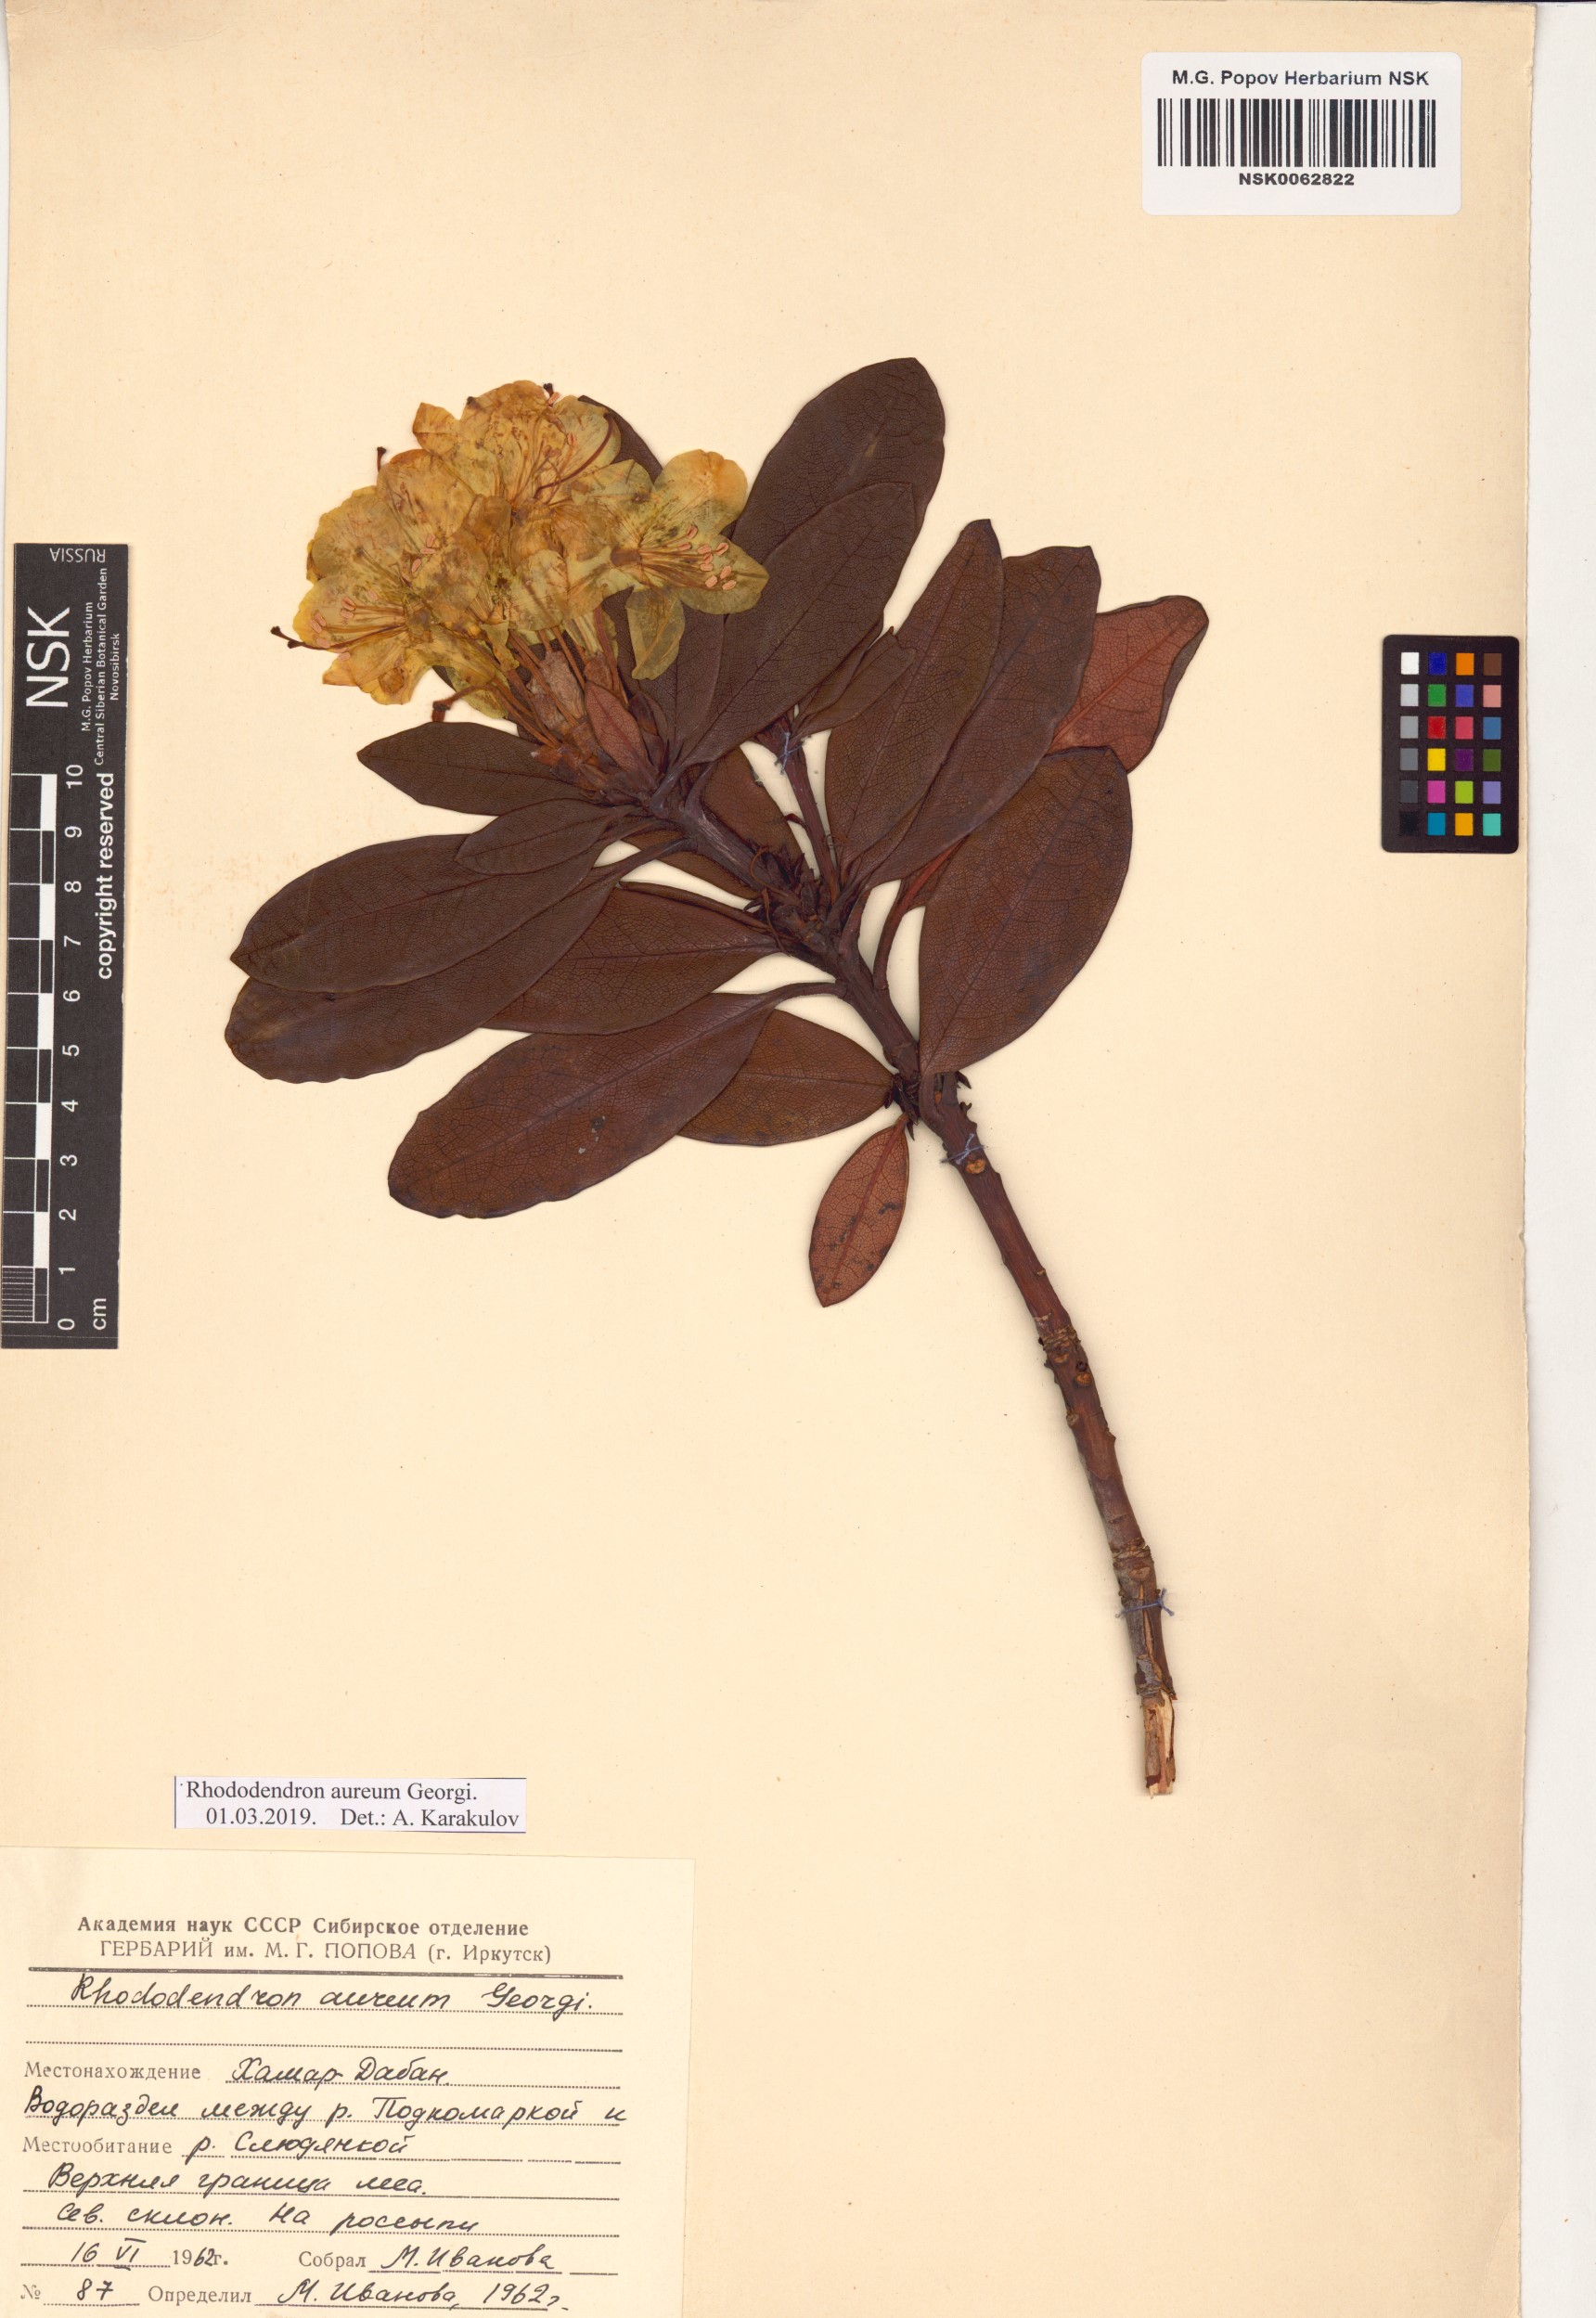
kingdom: Plantae
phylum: Tracheophyta
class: Magnoliopsida
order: Ericales
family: Ericaceae
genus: Rhododendron
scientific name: Rhododendron aureum
